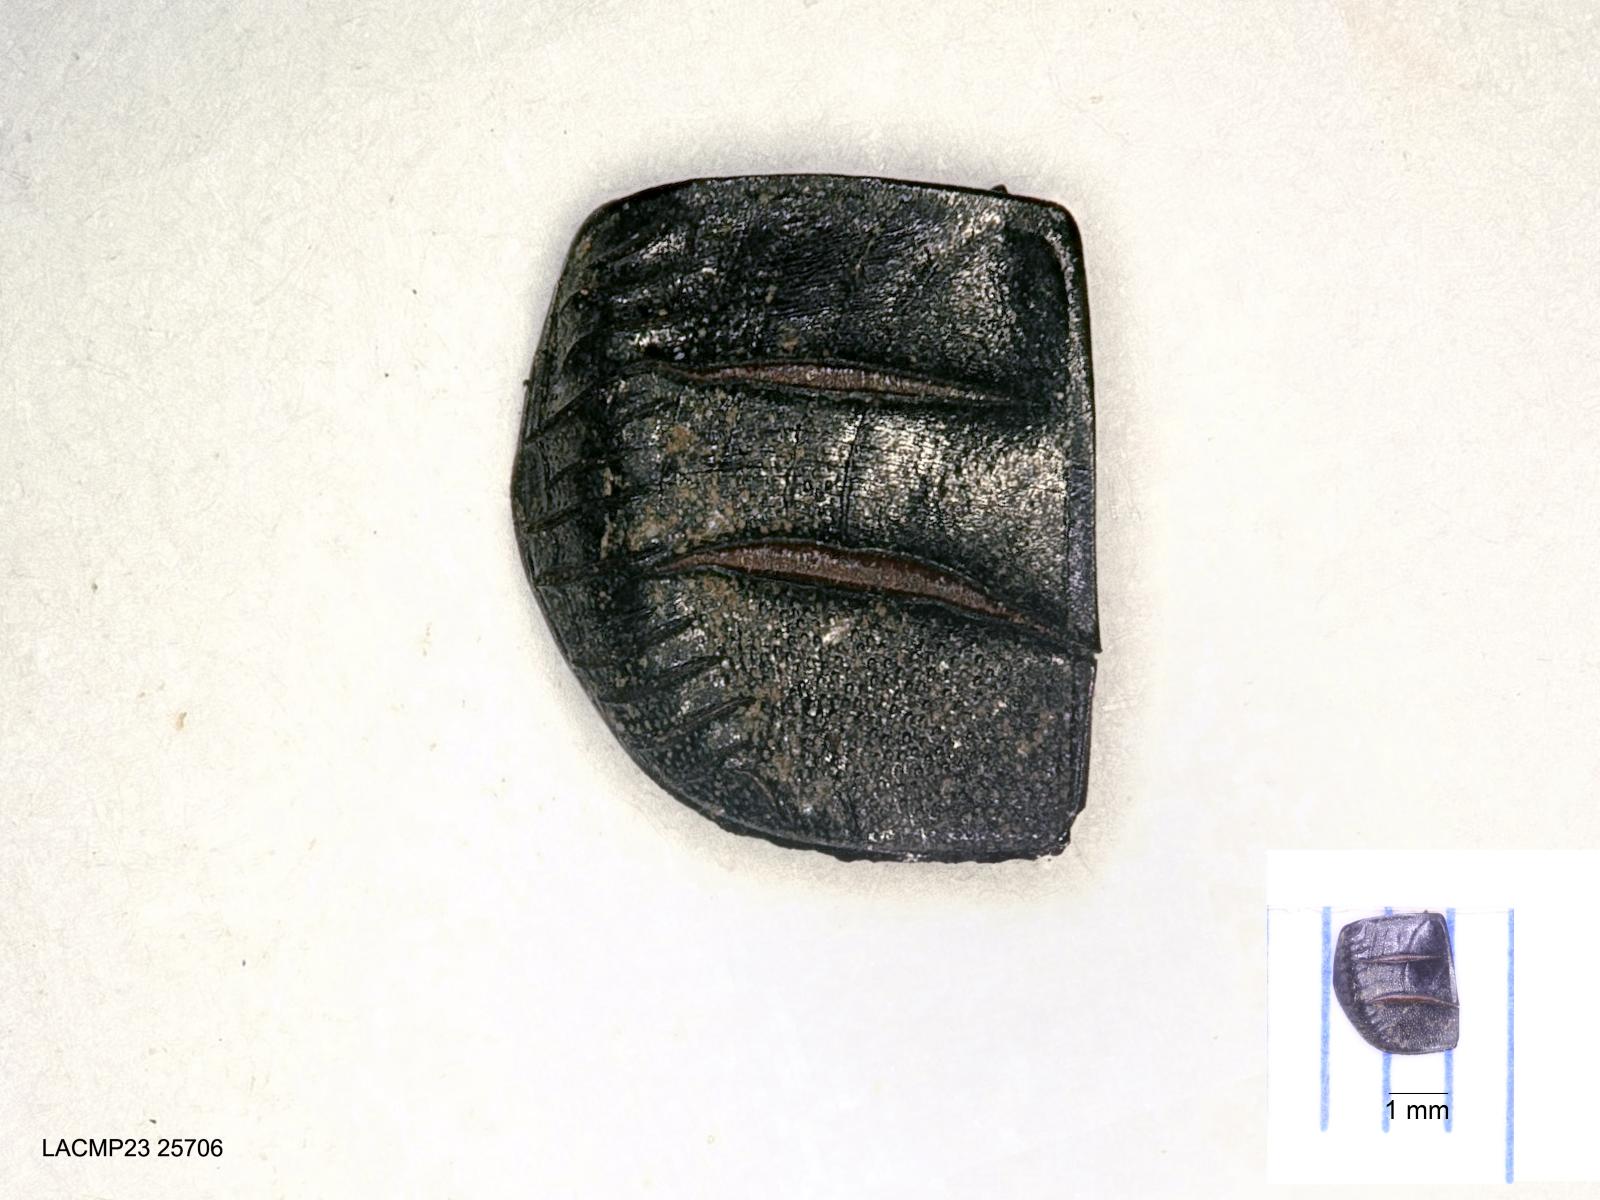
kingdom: Animalia
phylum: Arthropoda
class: Insecta
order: Coleoptera
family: Carabidae
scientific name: Carabidae
